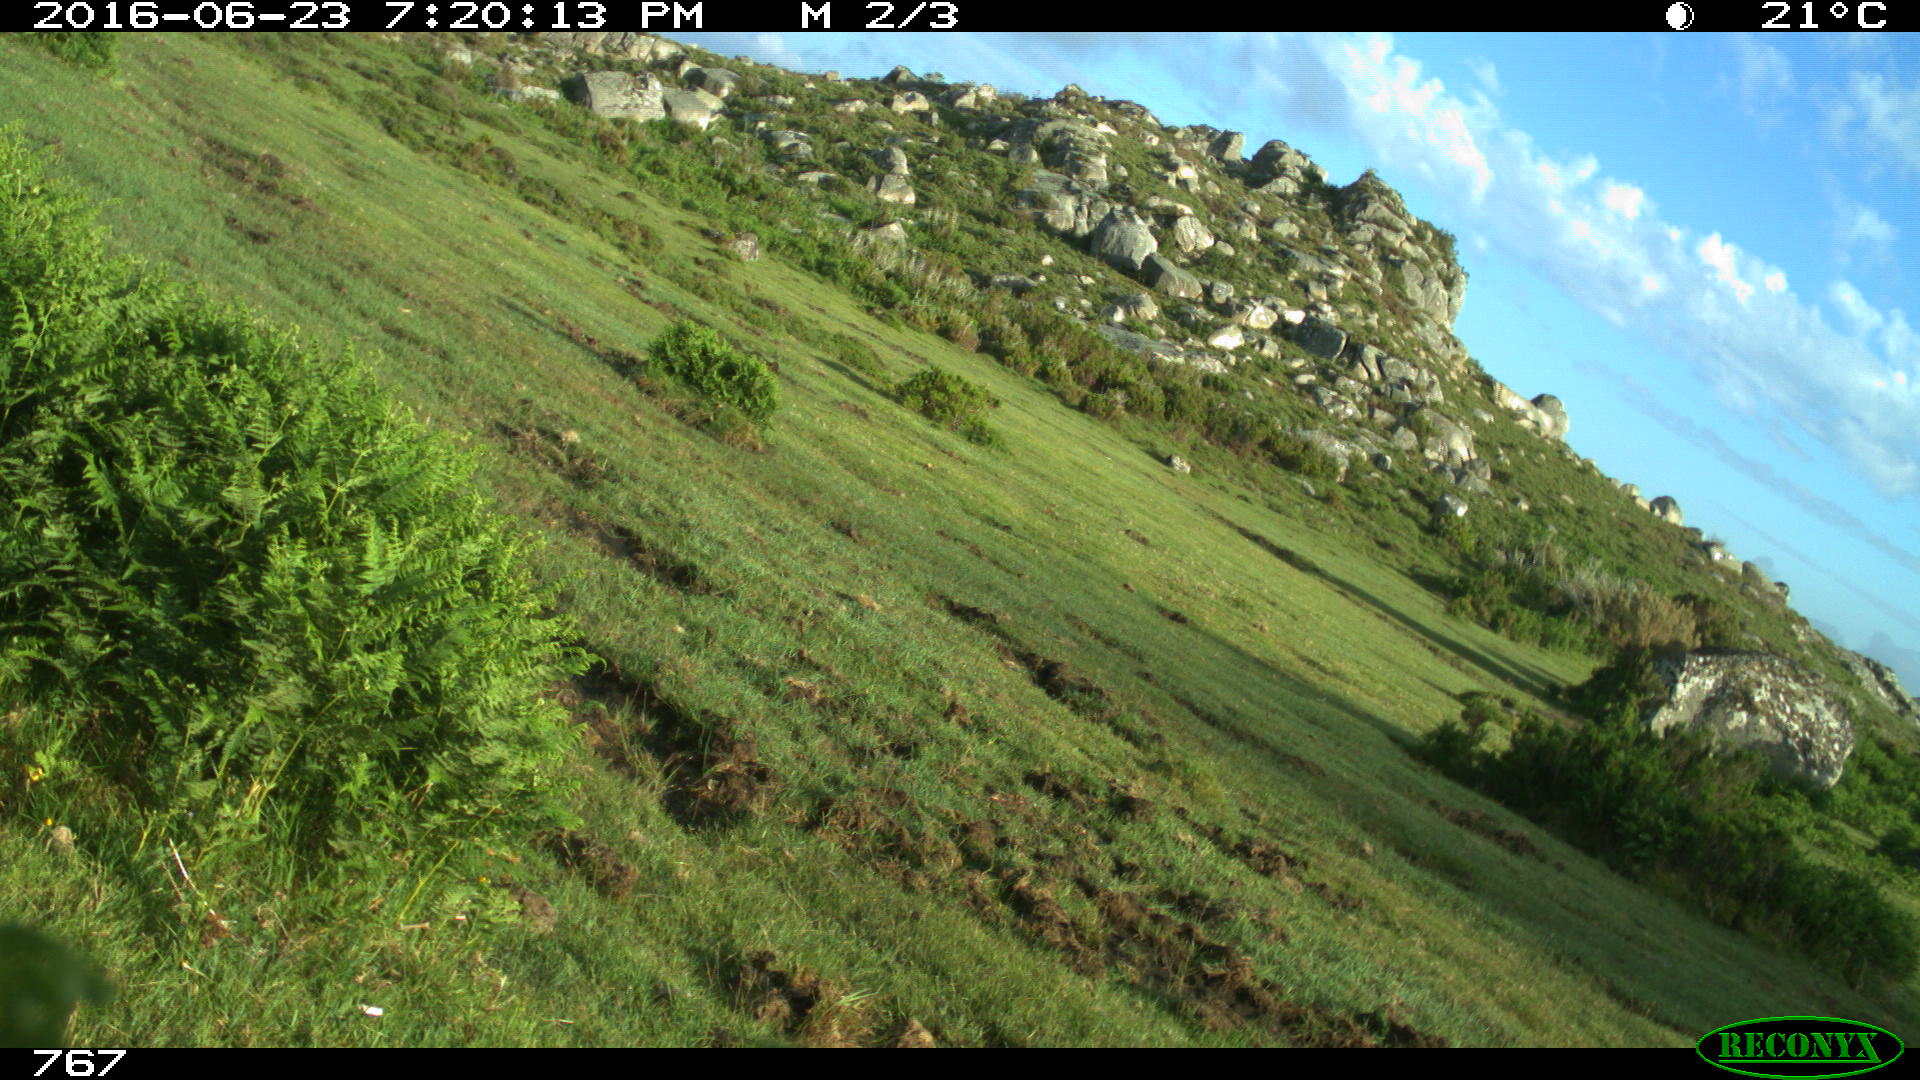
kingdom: Animalia
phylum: Chordata
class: Mammalia
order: Perissodactyla
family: Equidae
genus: Equus
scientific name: Equus caballus
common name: Horse
